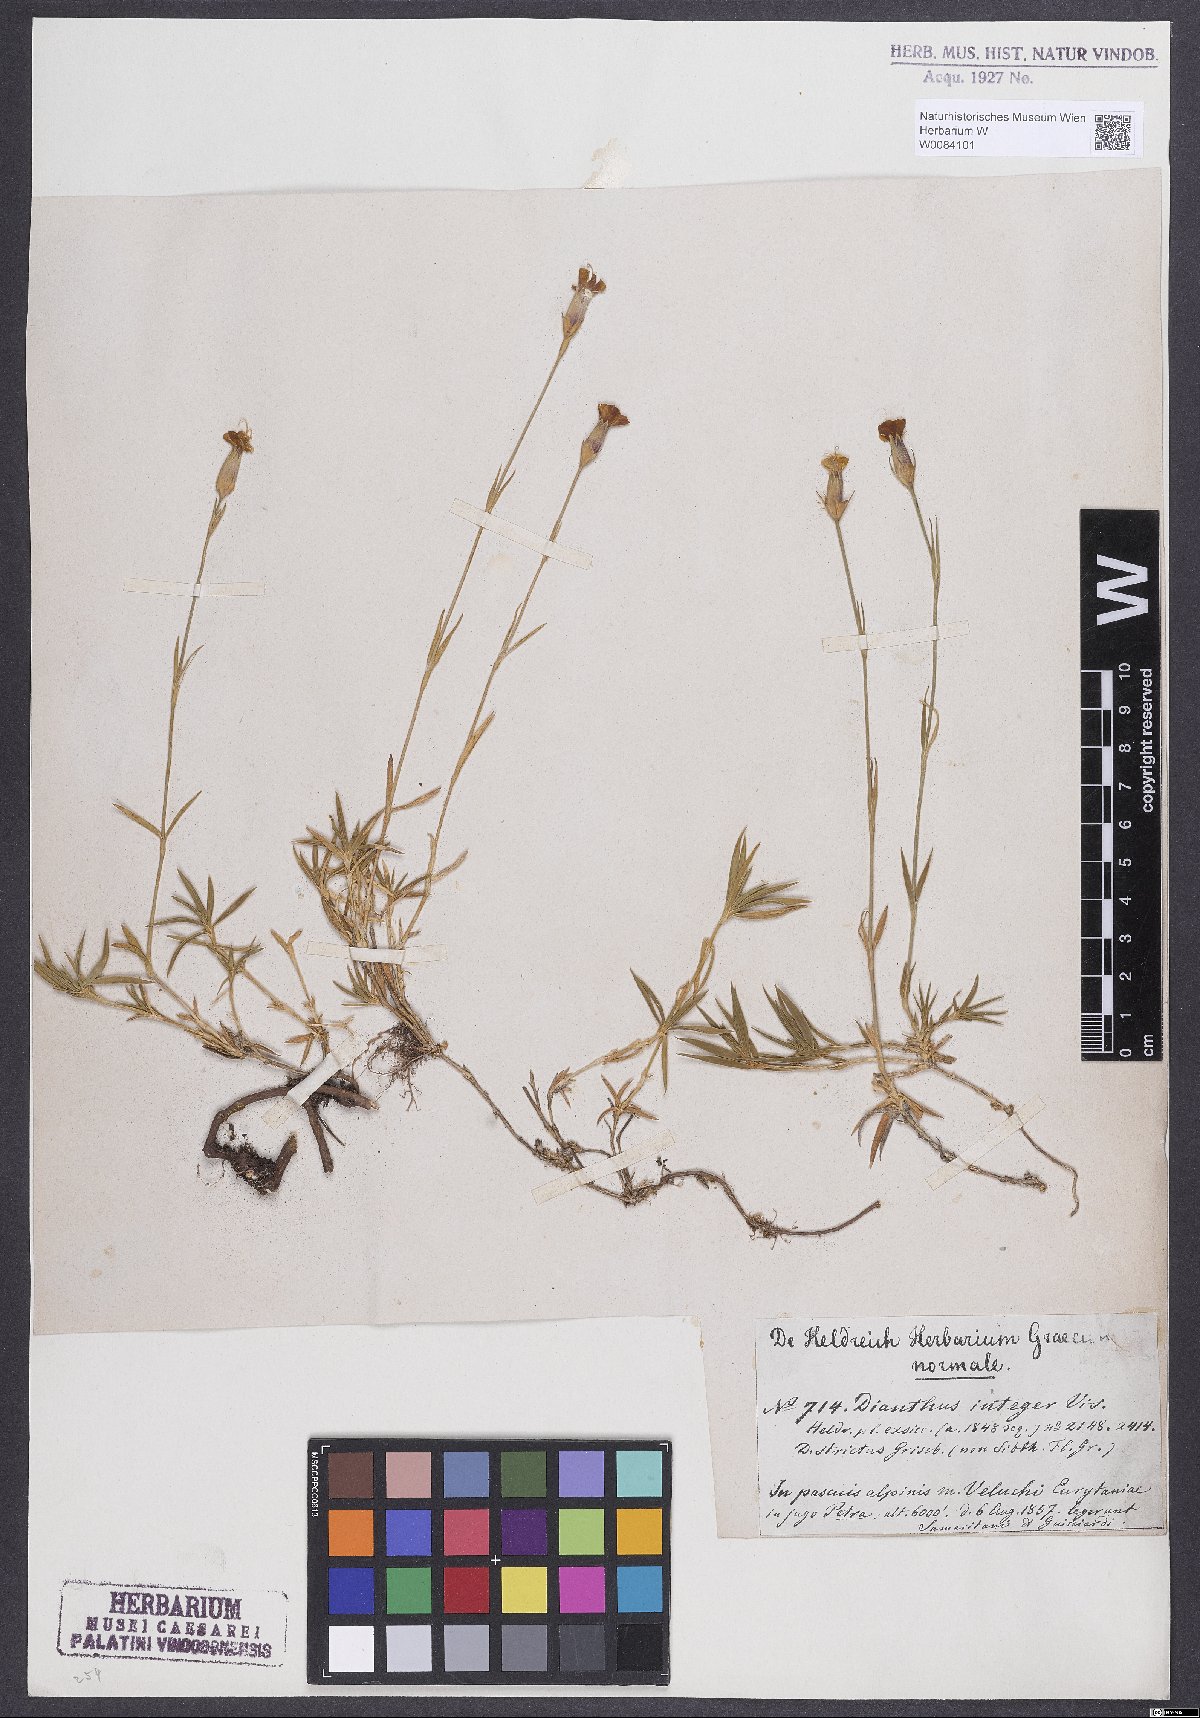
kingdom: Plantae
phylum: Tracheophyta
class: Magnoliopsida
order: Caryophyllales
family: Plumbaginaceae
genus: Acantholimon
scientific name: Acantholimon graecum
